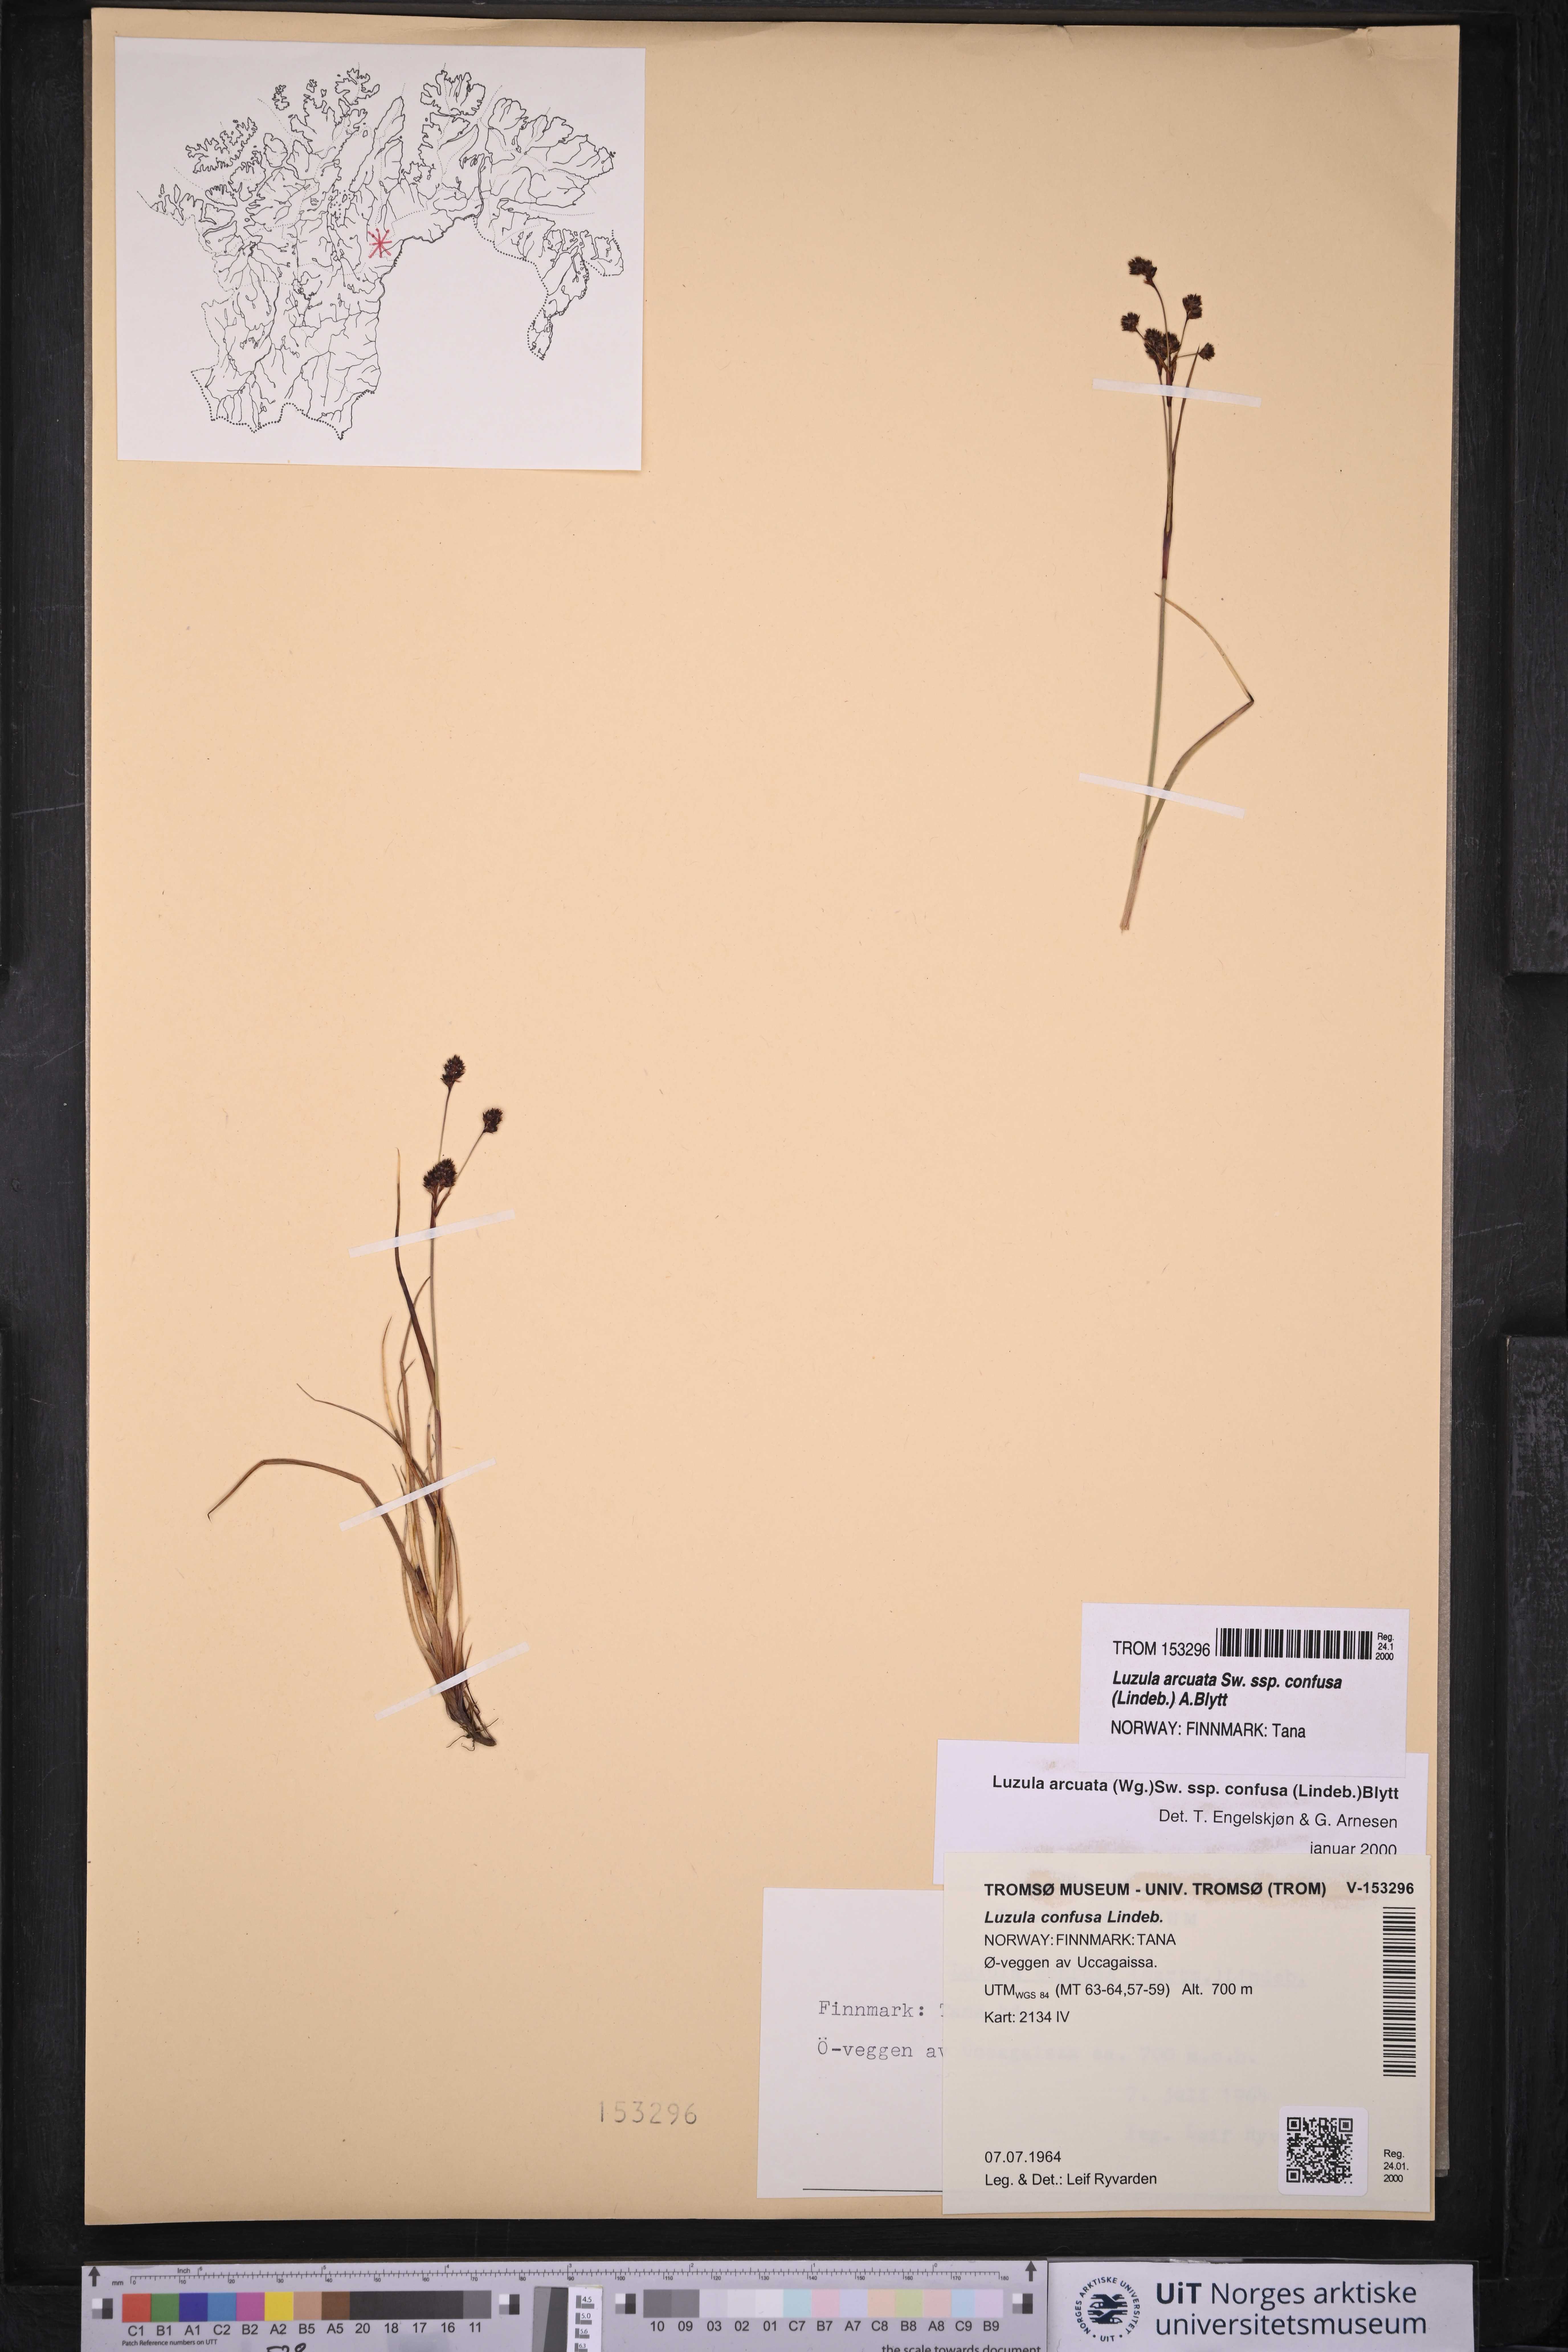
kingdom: Plantae
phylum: Tracheophyta
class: Liliopsida
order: Poales
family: Juncaceae
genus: Luzula
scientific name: Luzula confusa
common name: Northern wood rush
